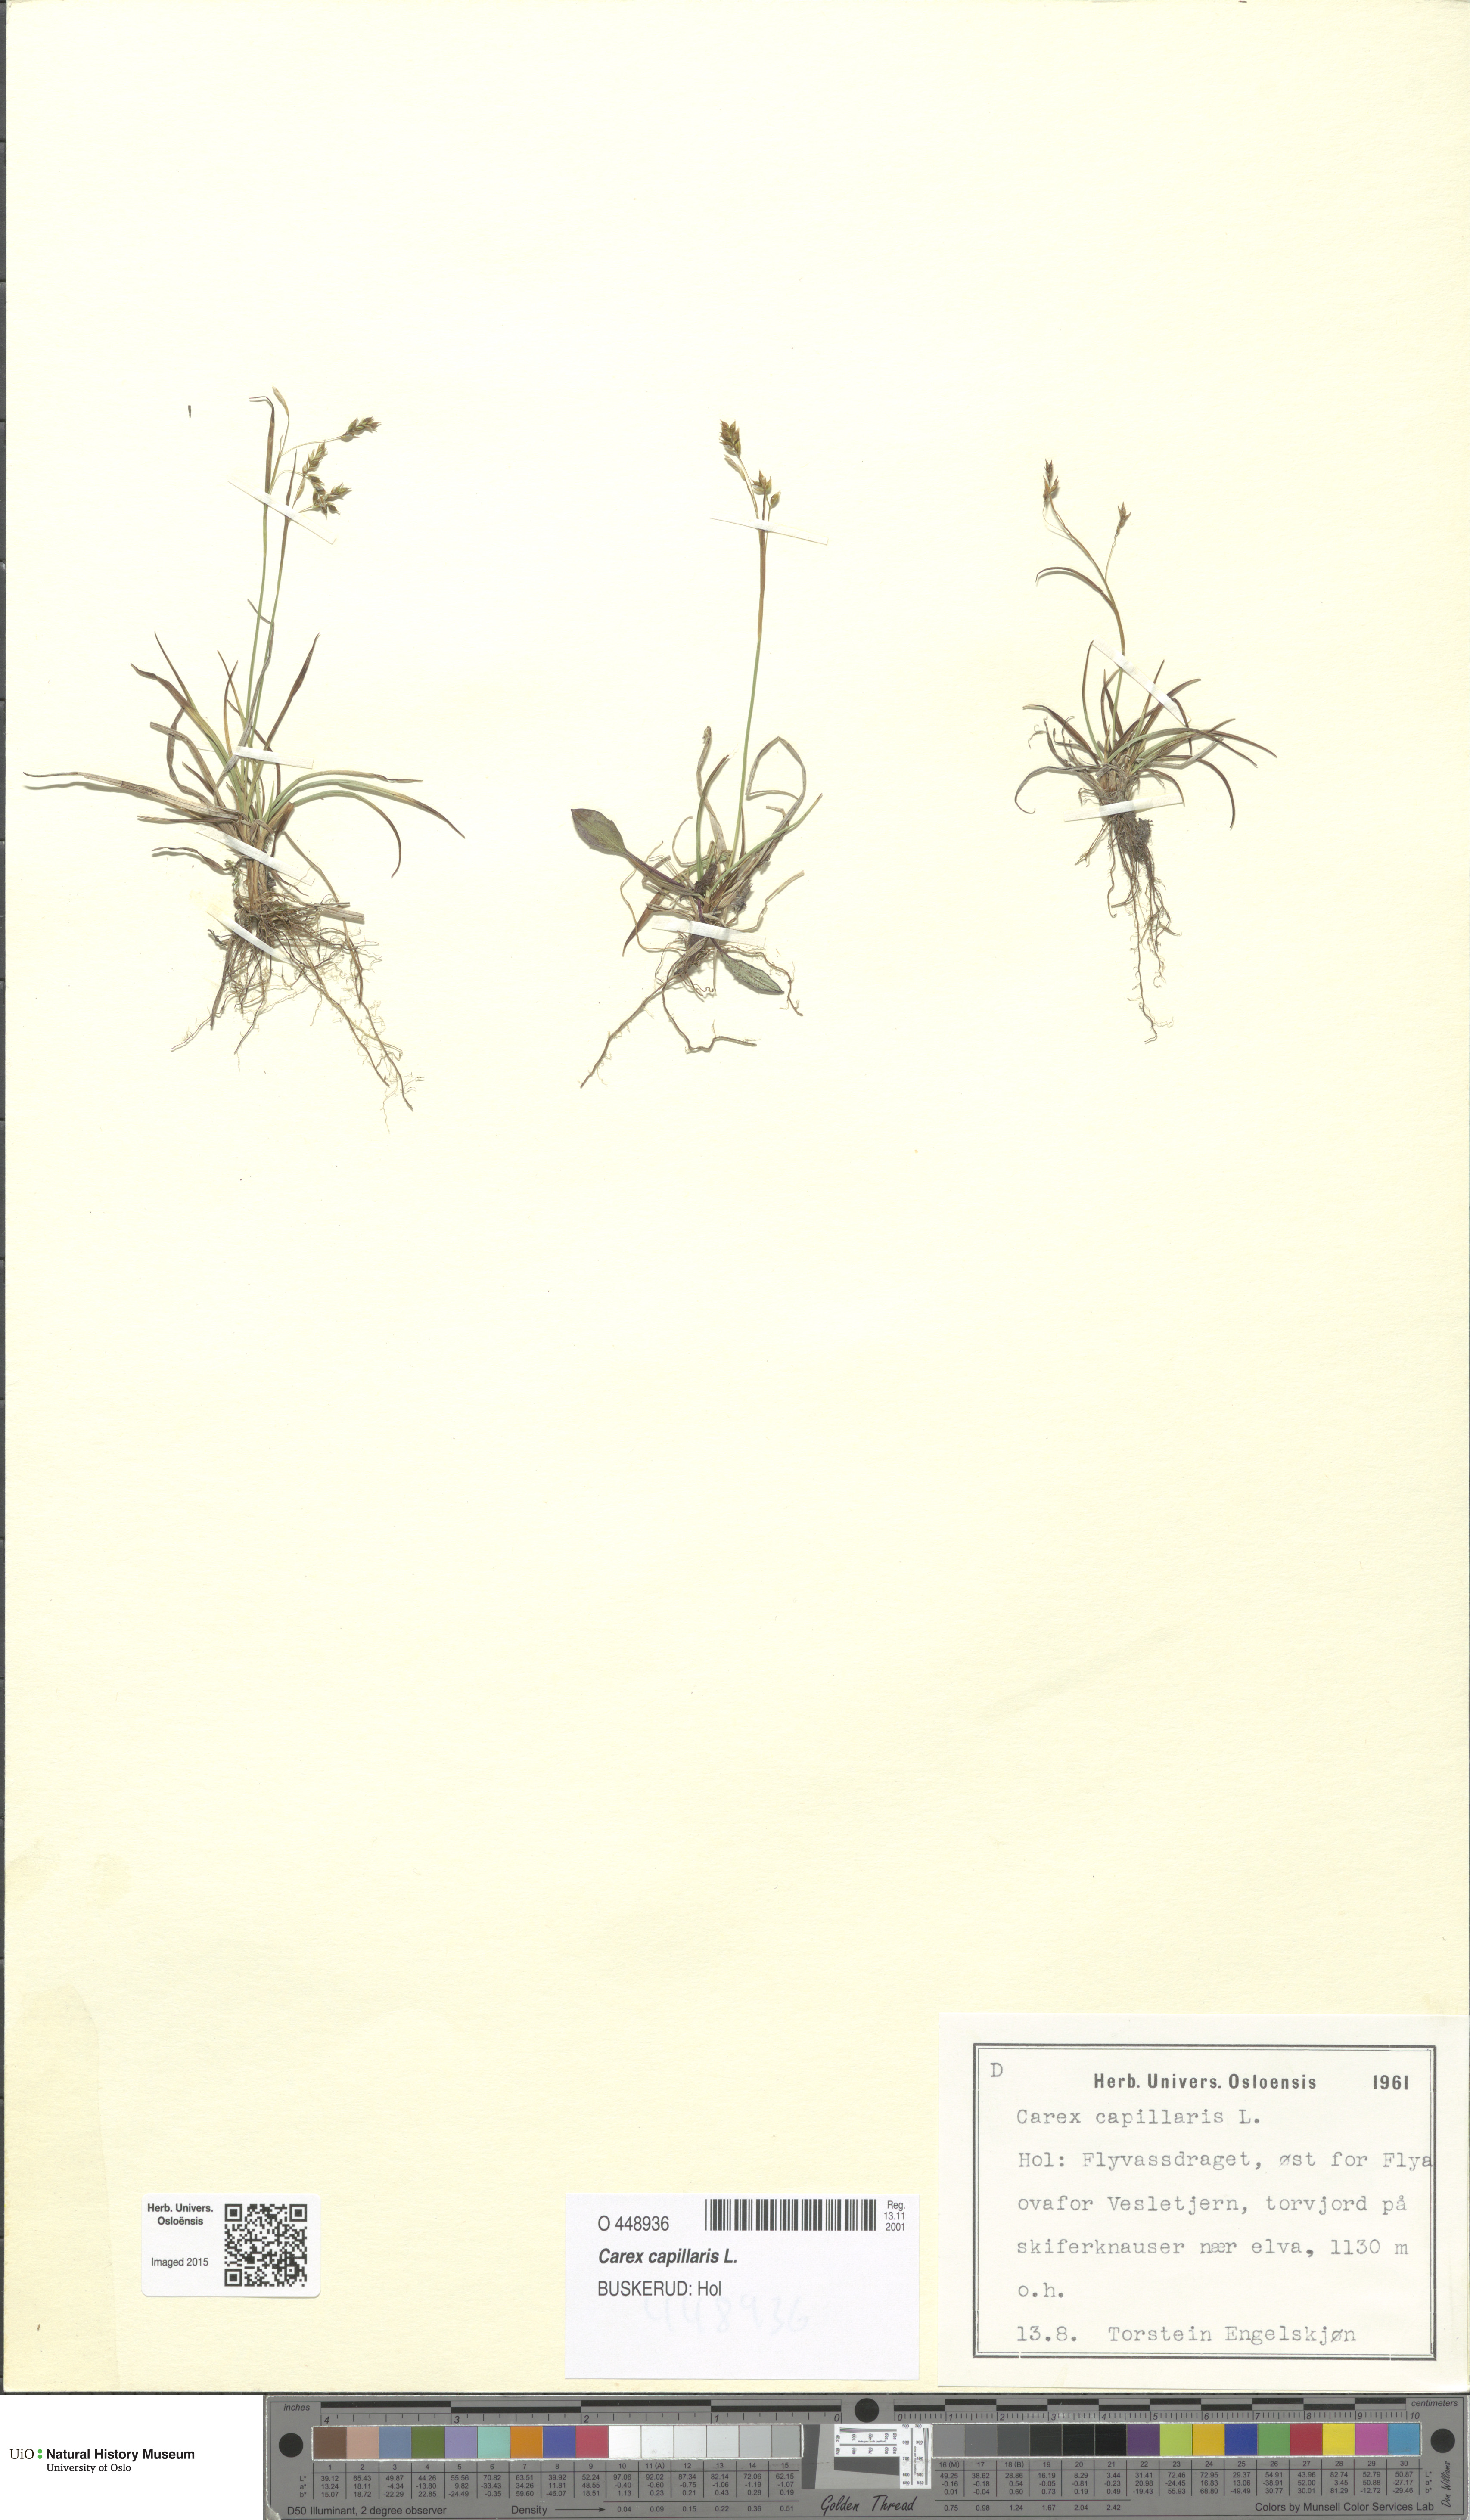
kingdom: Plantae
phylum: Tracheophyta
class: Liliopsida
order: Poales
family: Cyperaceae
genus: Carex
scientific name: Carex capillaris
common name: Hair sedge
